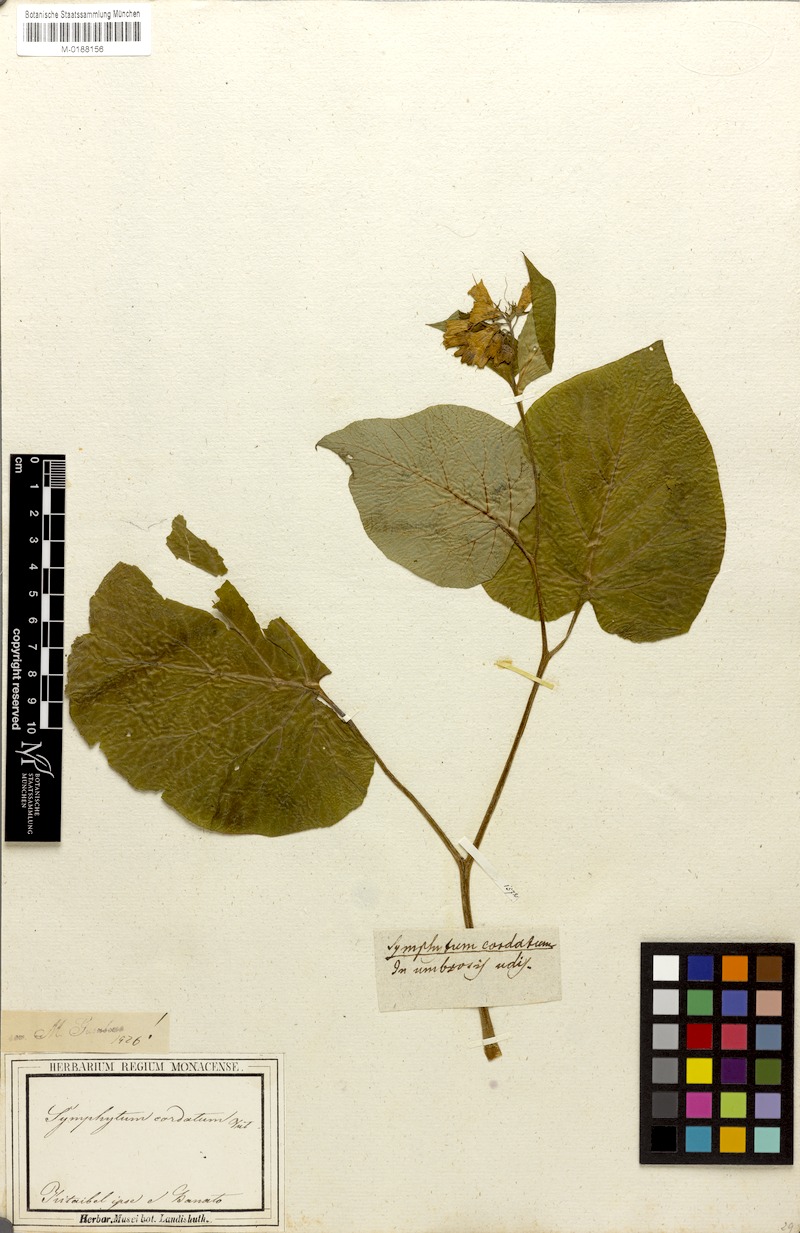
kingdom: Plantae
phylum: Tracheophyta
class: Magnoliopsida
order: Boraginales
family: Boraginaceae
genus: Symphytum
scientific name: Symphytum cordatum
